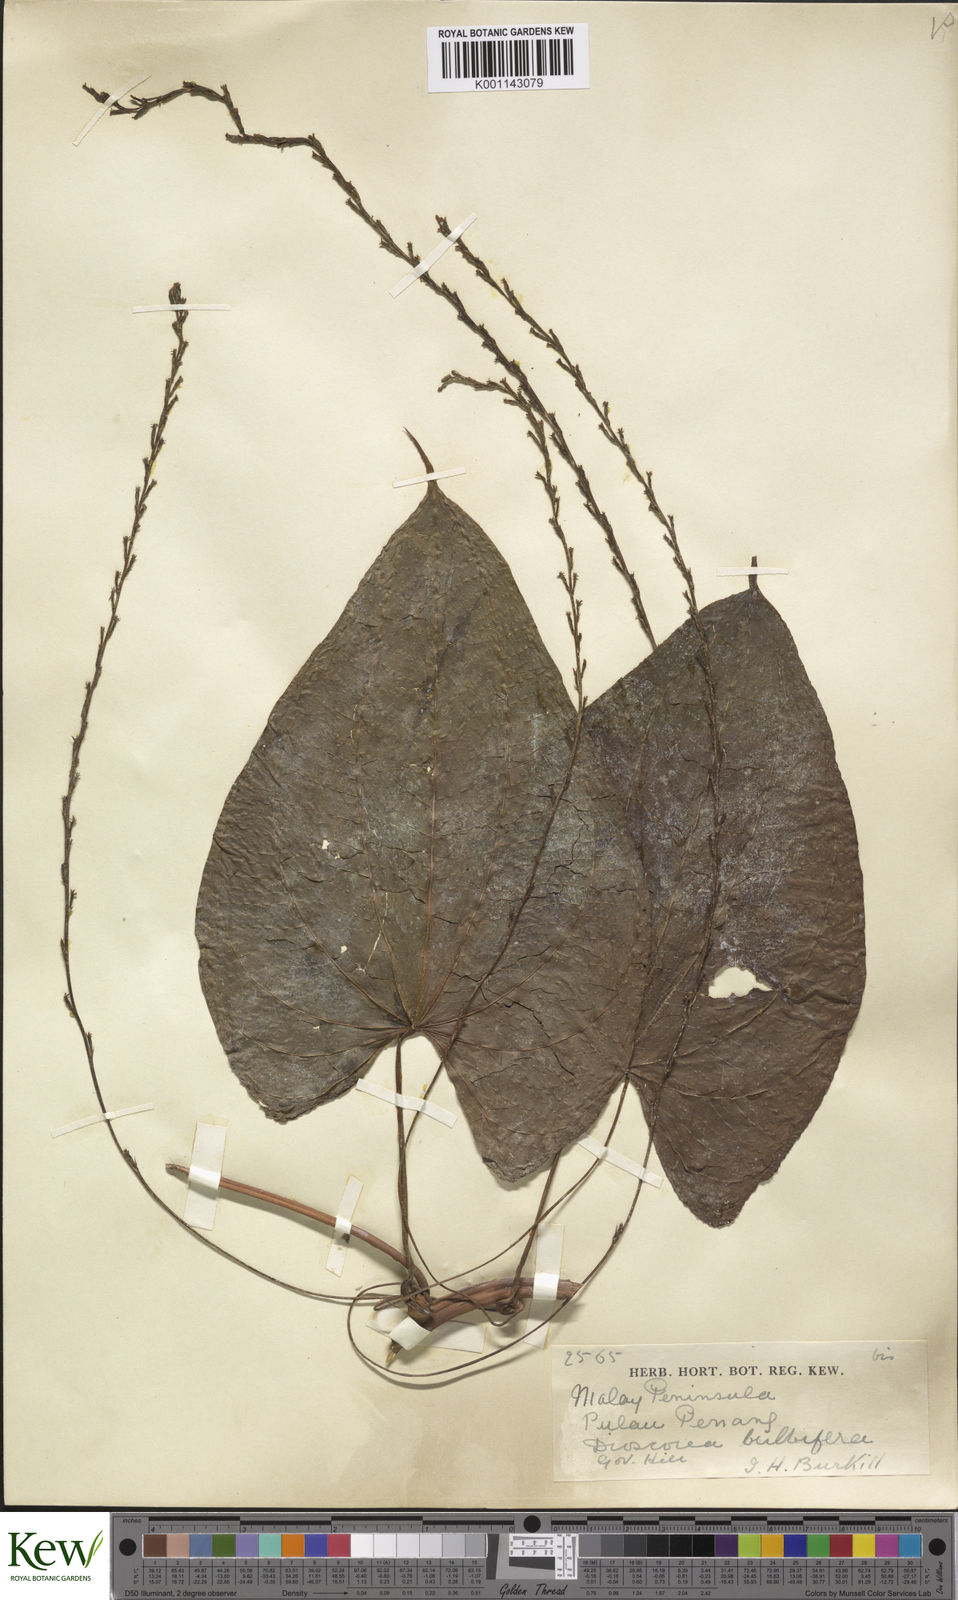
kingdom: Plantae
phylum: Tracheophyta
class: Liliopsida
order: Dioscoreales
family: Dioscoreaceae
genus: Dioscorea
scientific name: Dioscorea bulbifera
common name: Air yam
